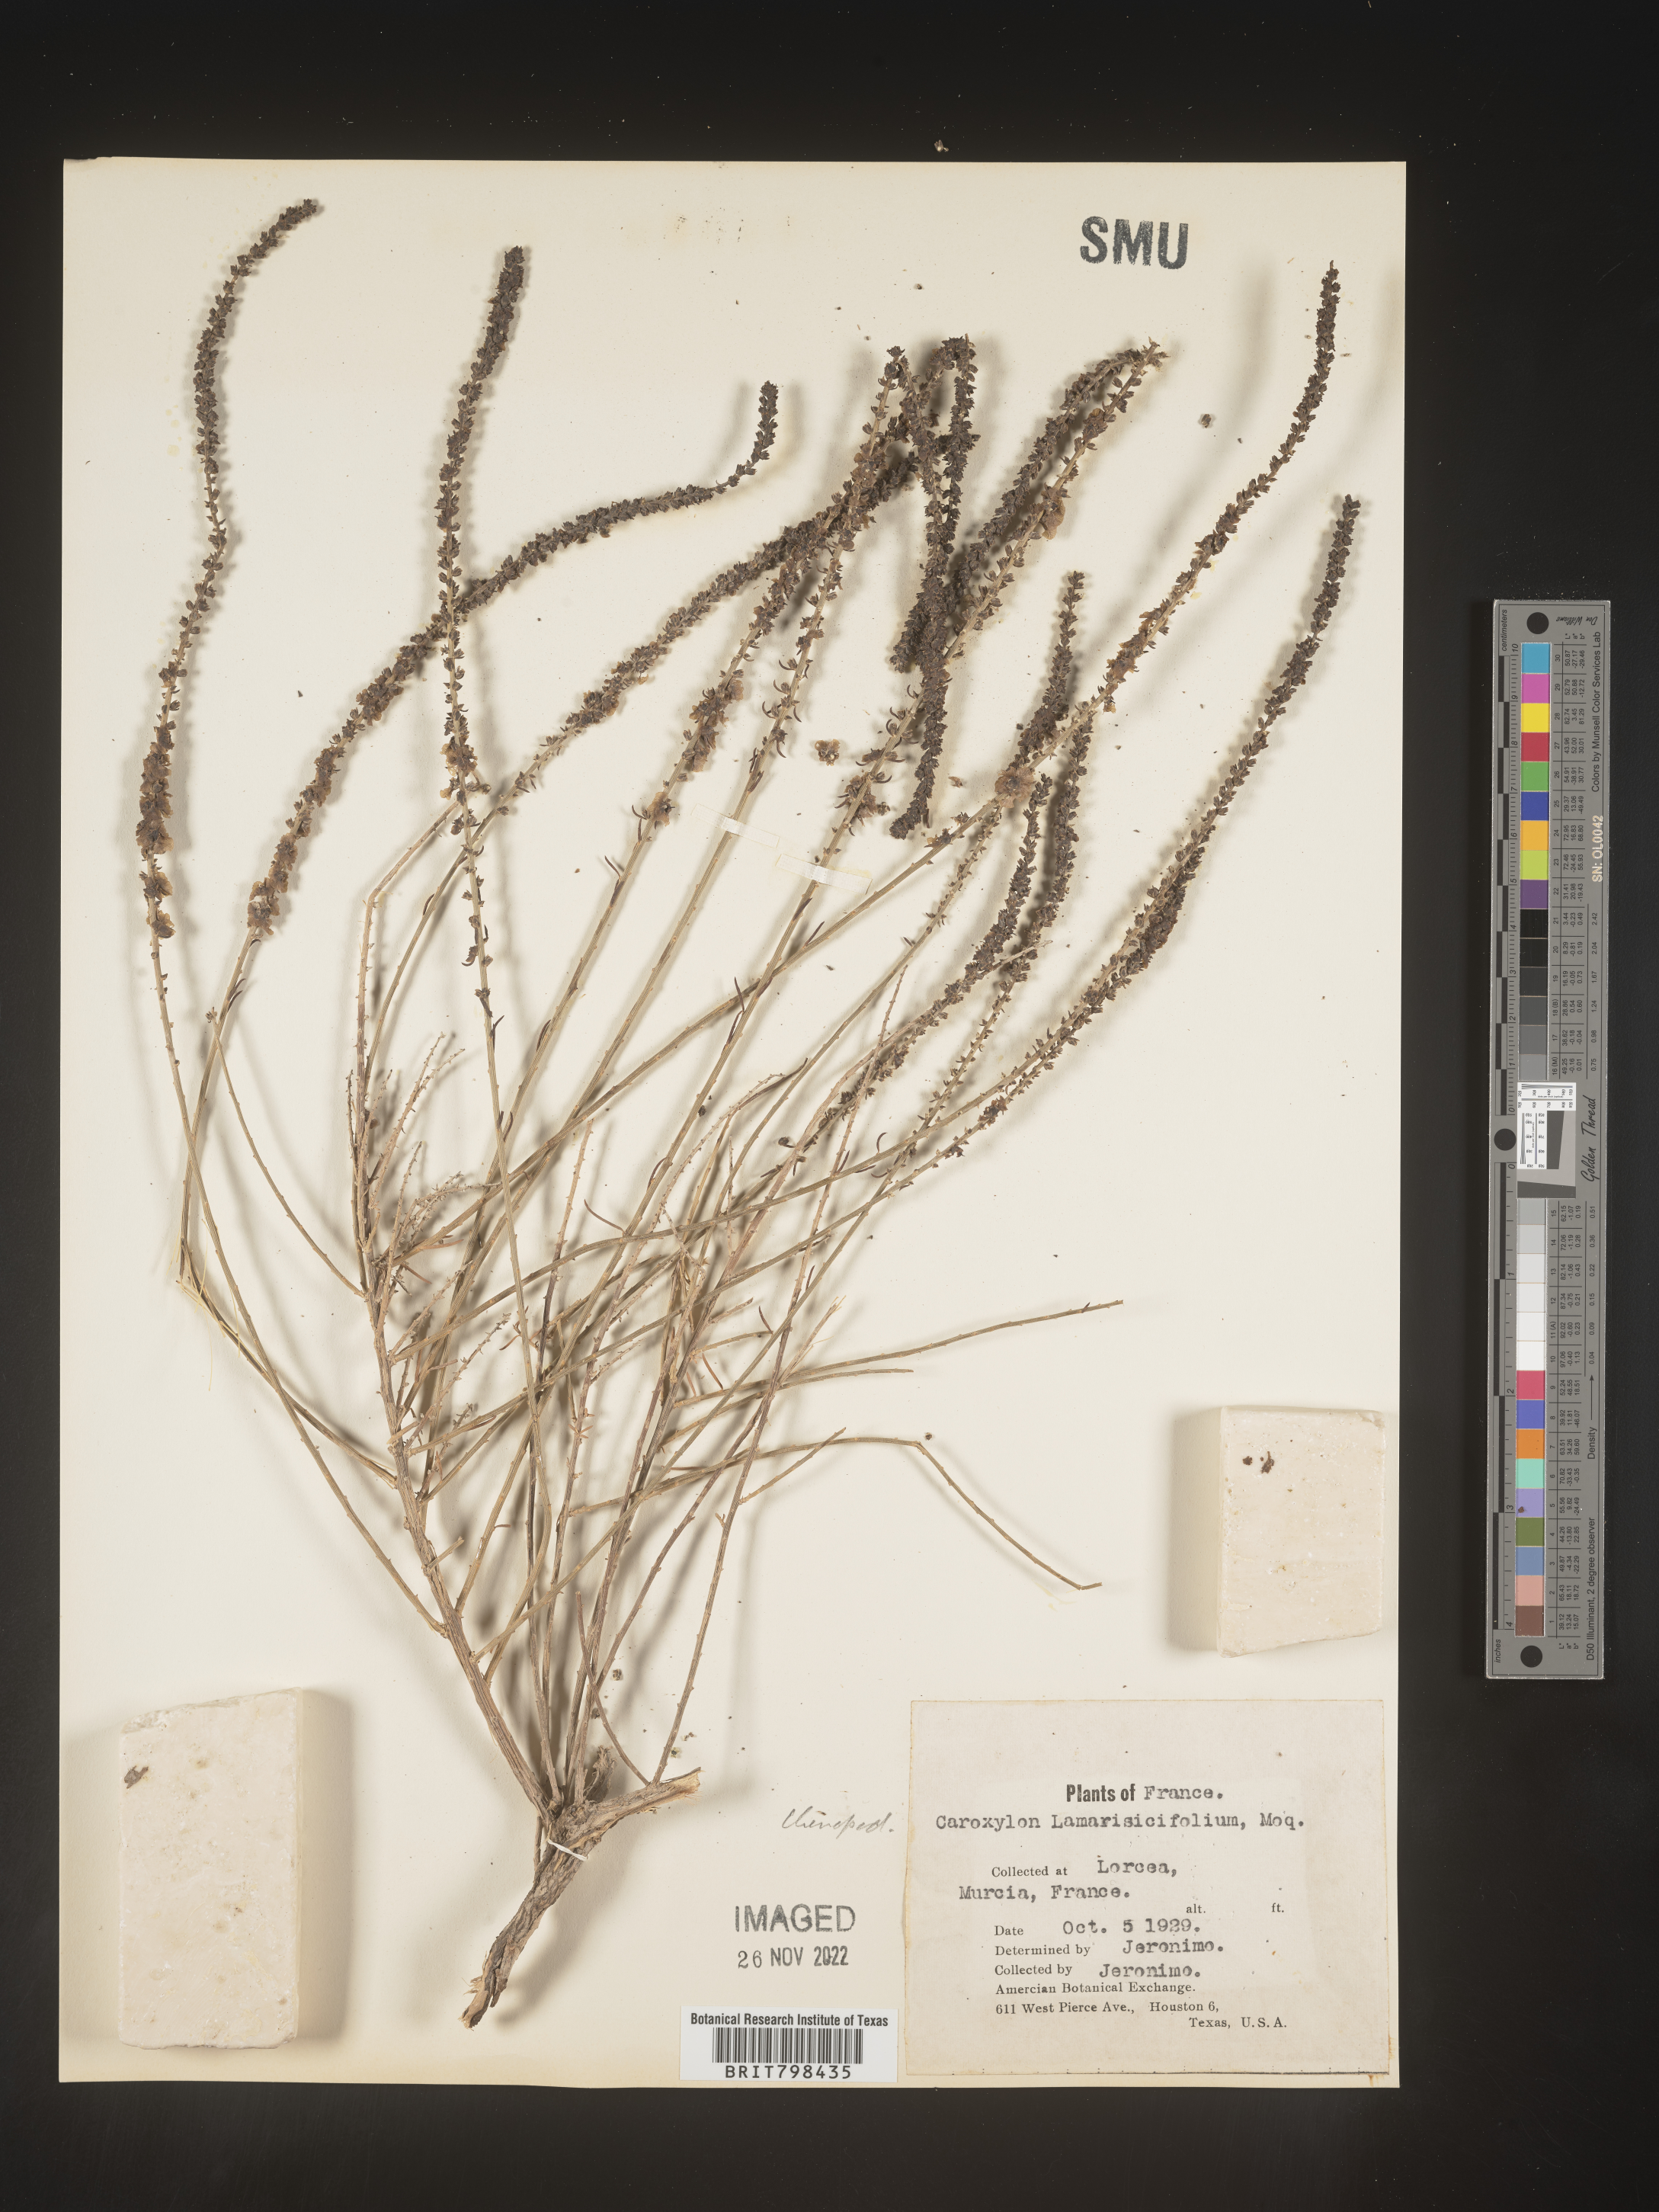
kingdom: Plantae
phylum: Tracheophyta
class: Magnoliopsida
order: Caryophyllales
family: Amaranthaceae
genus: Caroxylon
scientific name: Caroxylon
